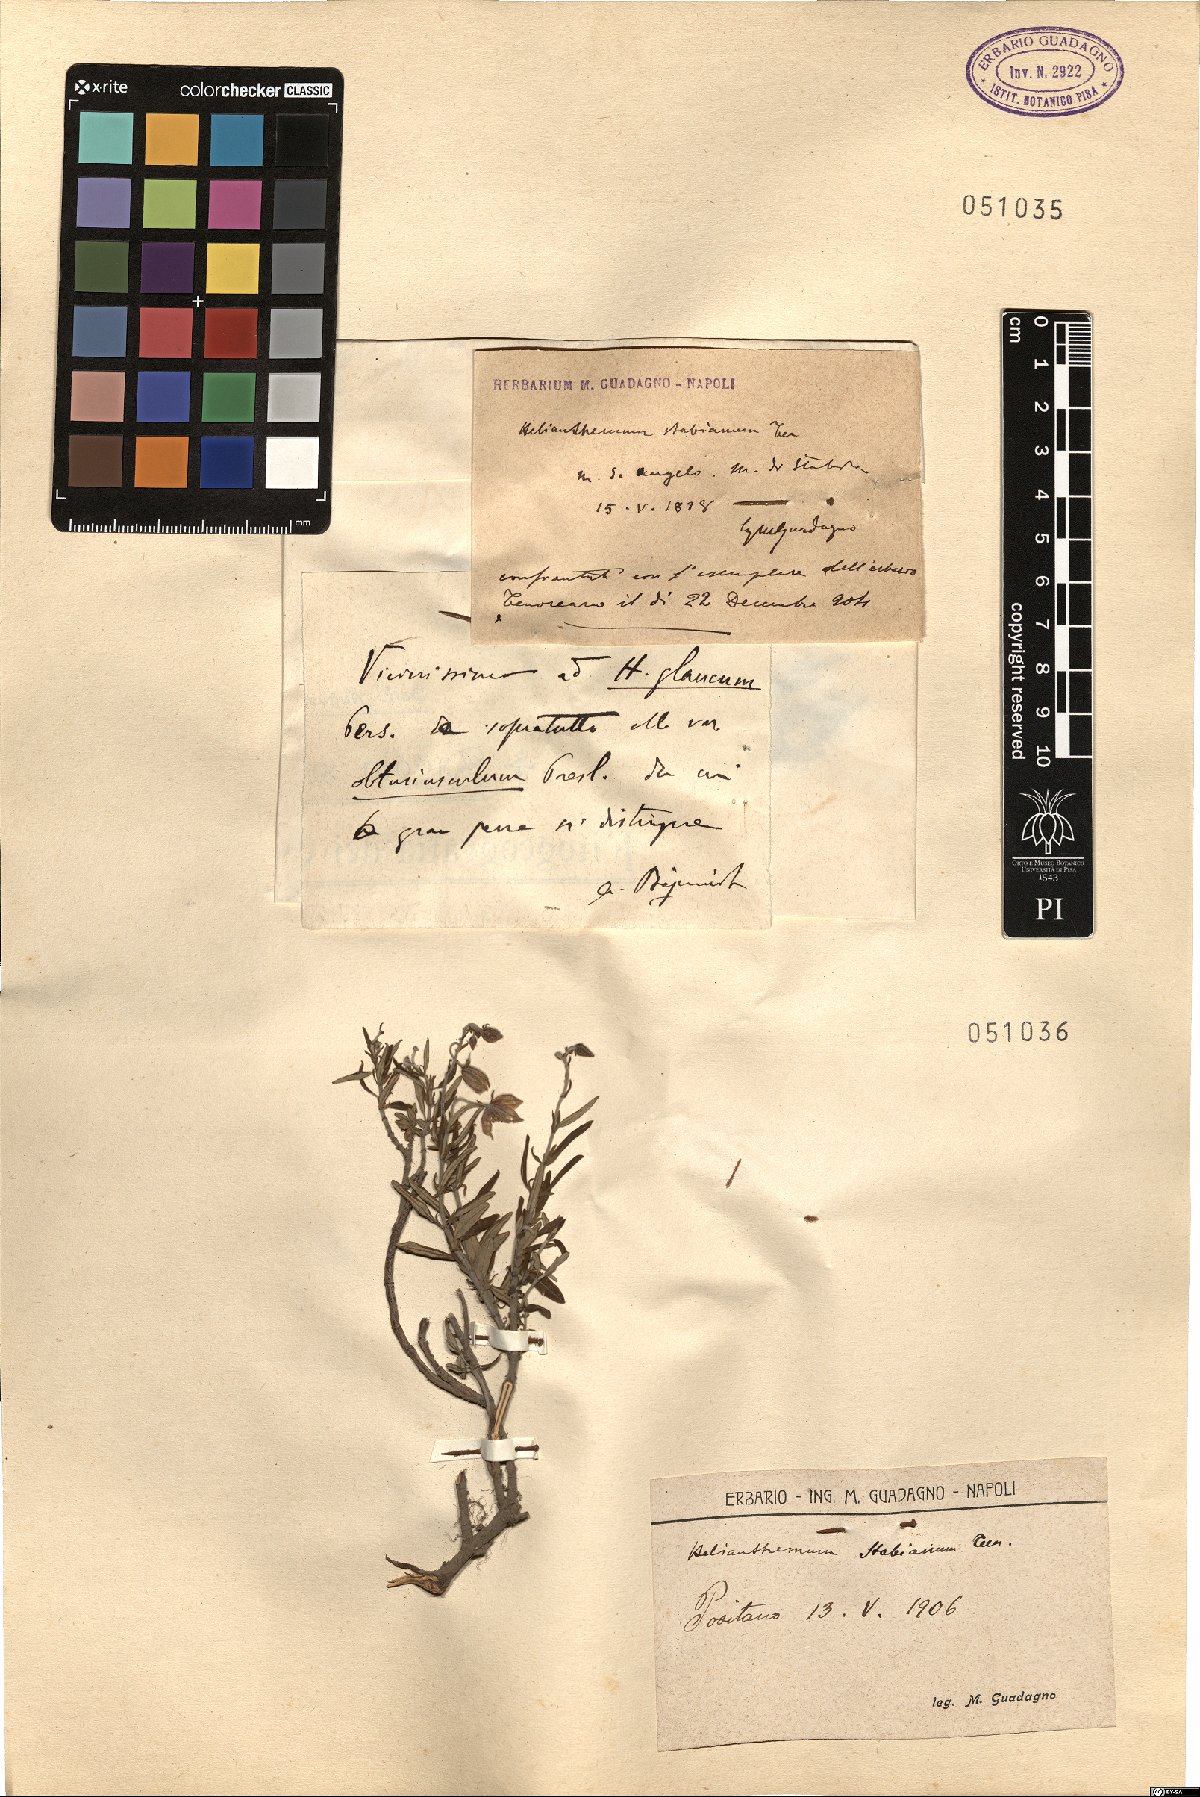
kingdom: Plantae
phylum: Tracheophyta
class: Magnoliopsida
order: Malvales
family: Cistaceae
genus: Helianthemum
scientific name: Helianthemum croceum
